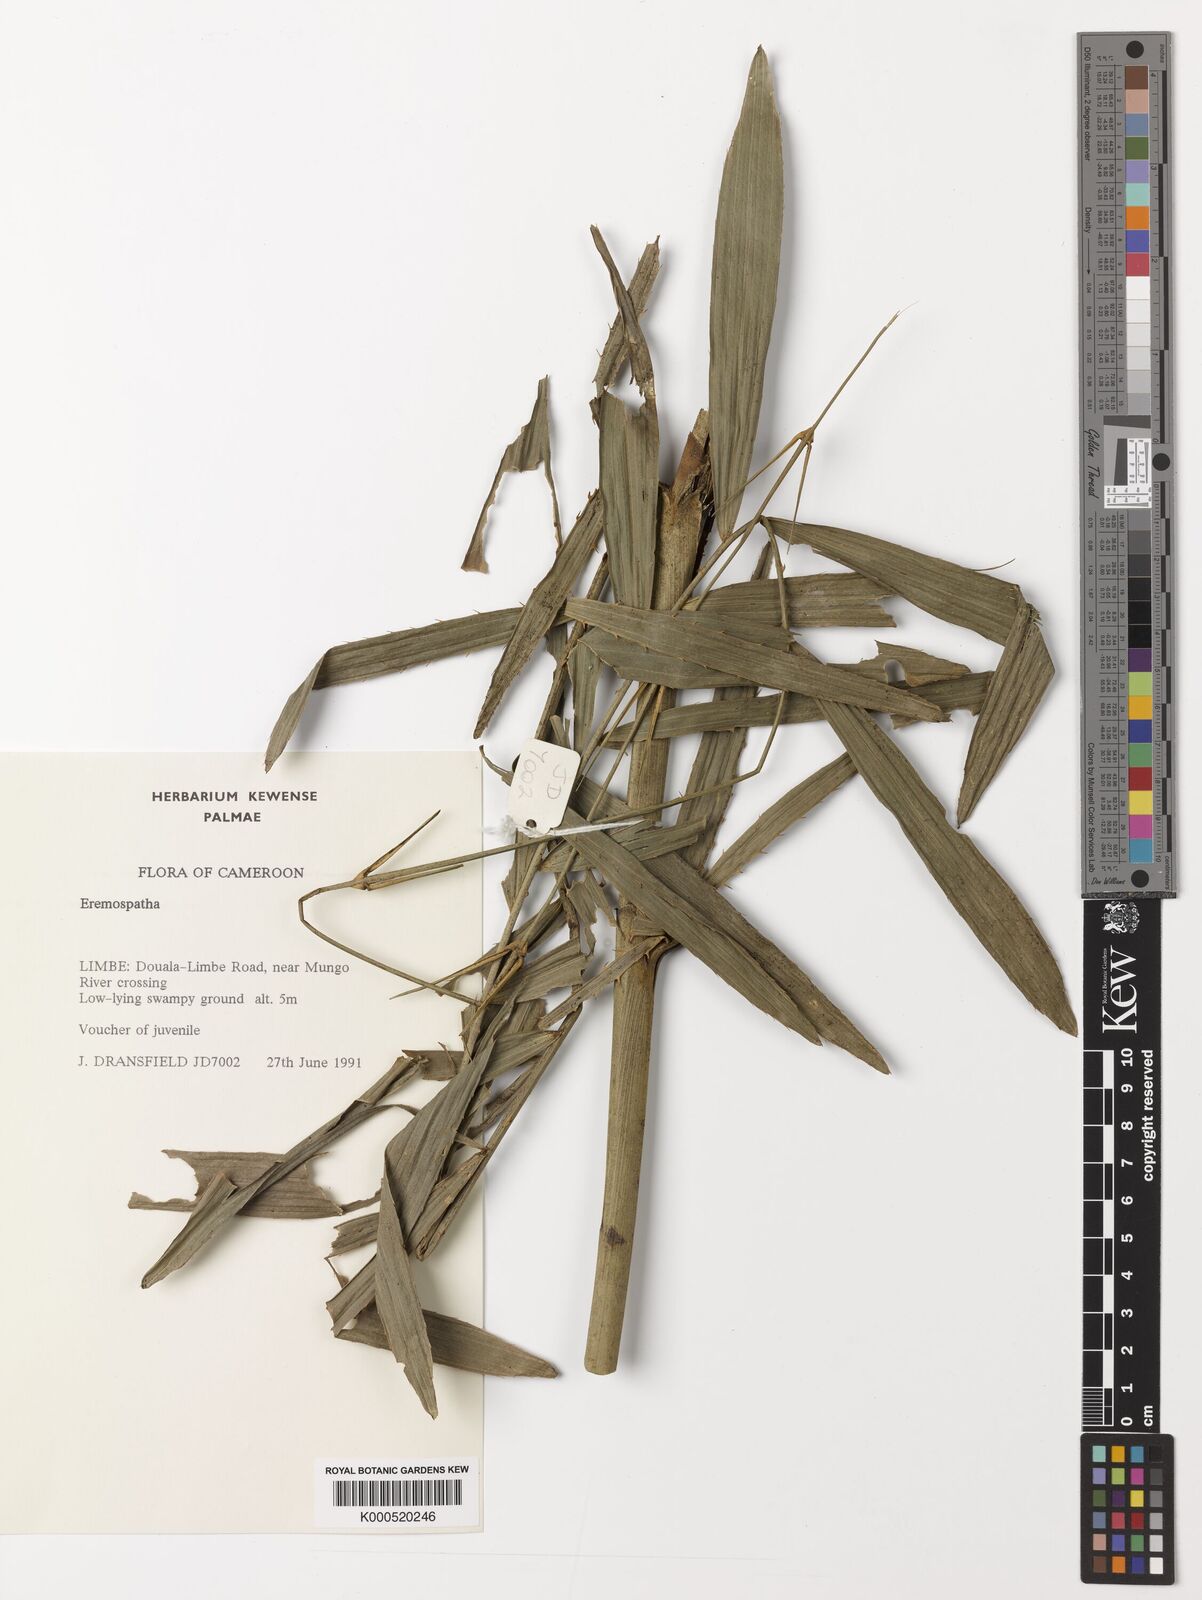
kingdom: Plantae
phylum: Tracheophyta
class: Liliopsida
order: Arecales
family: Arecaceae
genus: Eremospatha
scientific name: Eremospatha
